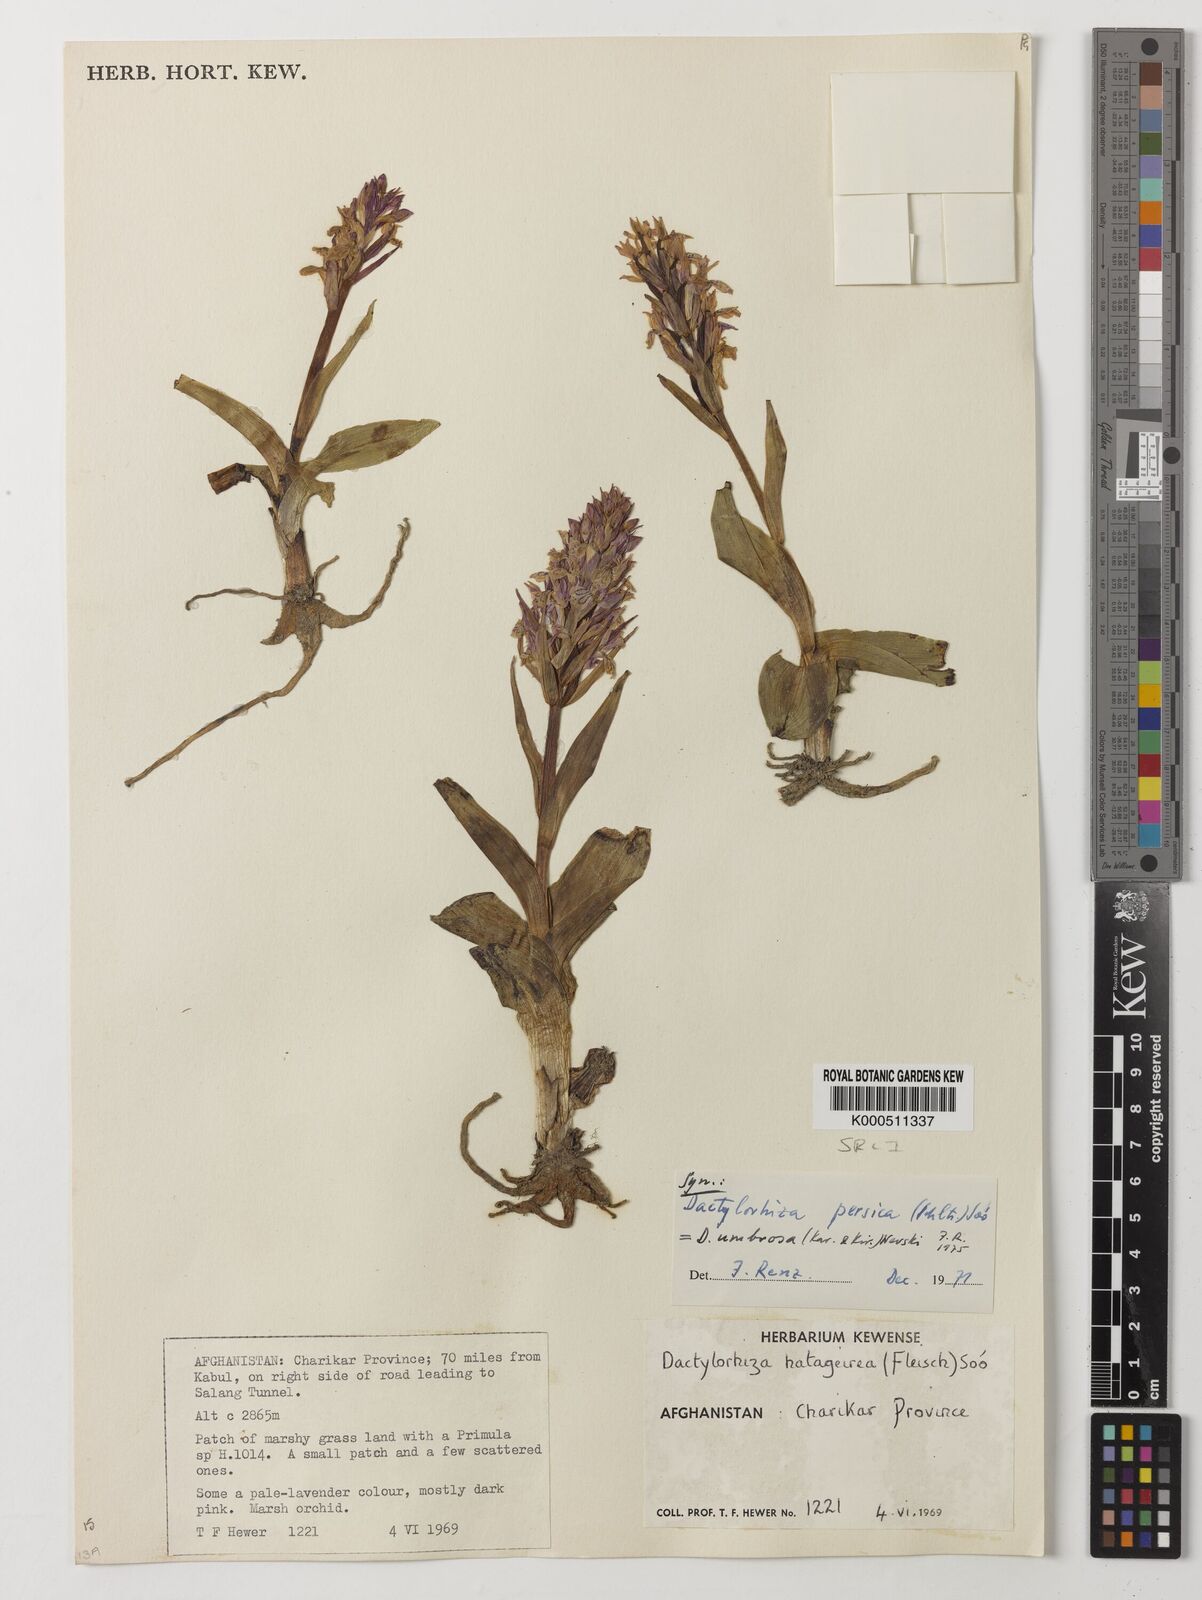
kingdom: Plantae
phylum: Tracheophyta
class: Liliopsida
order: Asparagales
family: Orchidaceae
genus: Dactylorhiza
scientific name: Dactylorhiza
